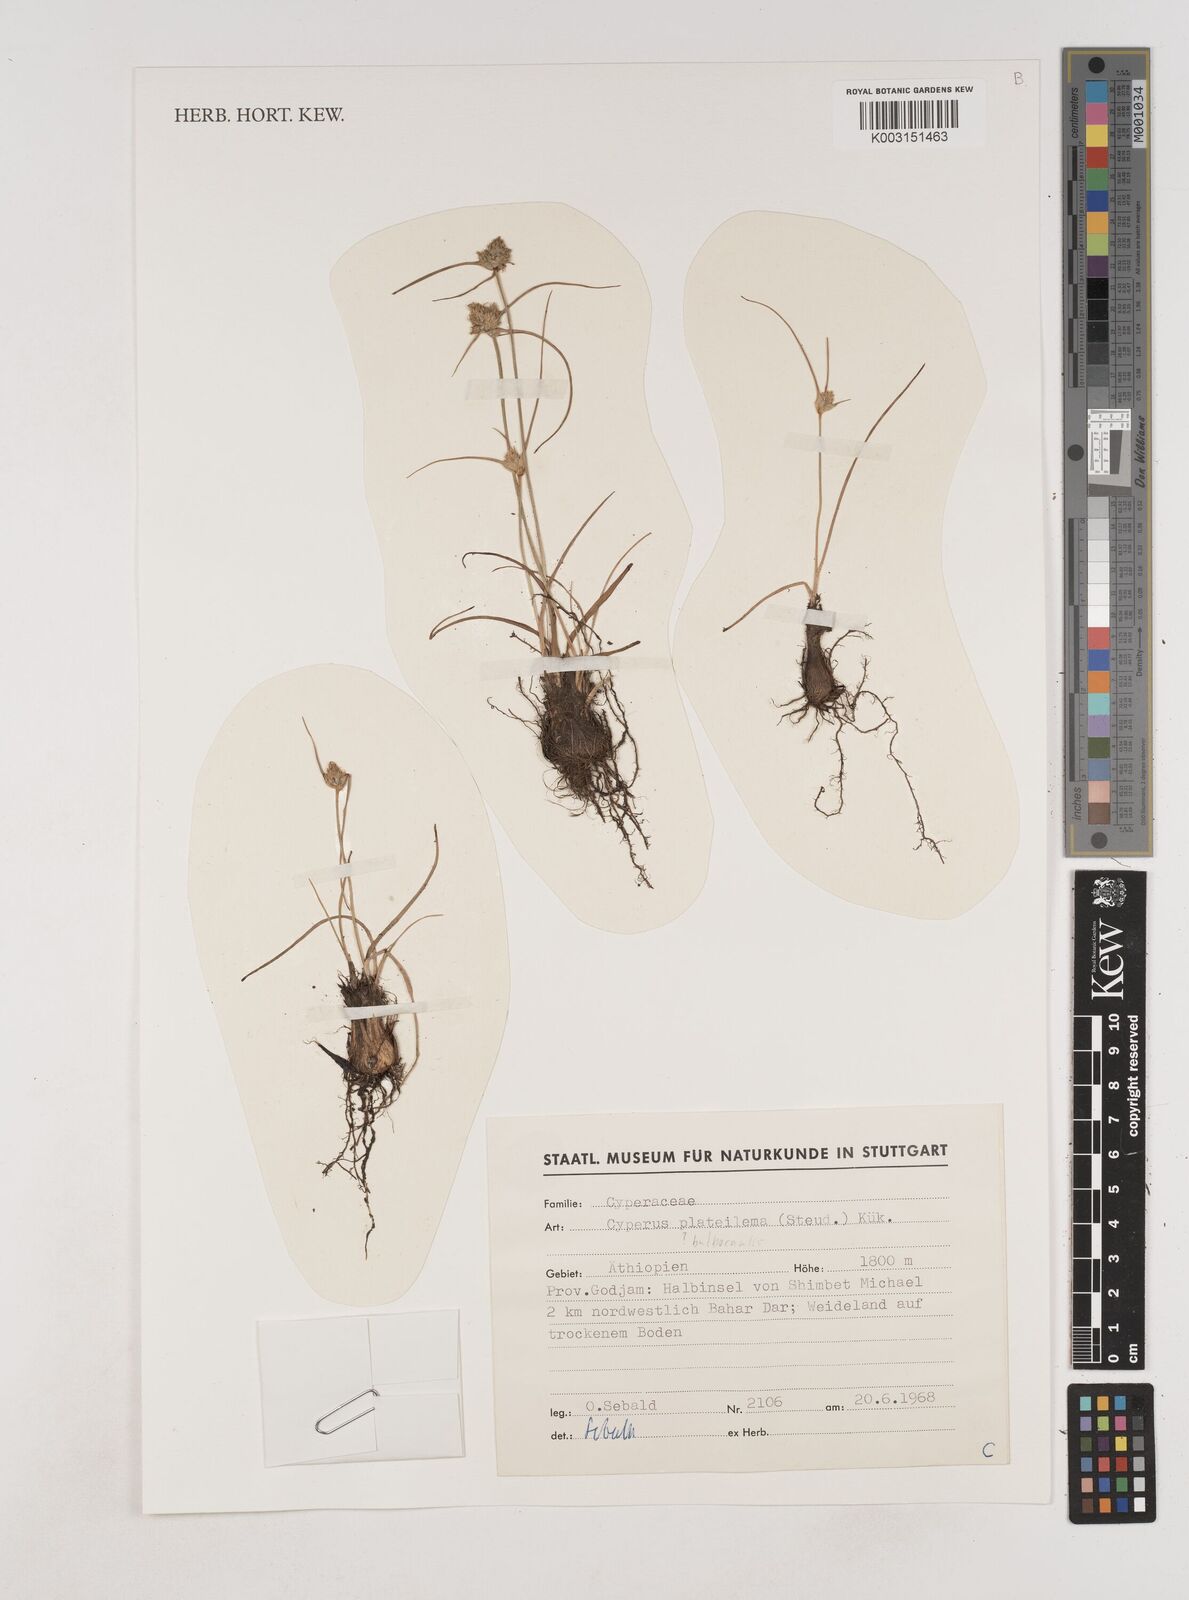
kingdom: Plantae
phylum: Tracheophyta
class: Liliopsida
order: Poales
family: Cyperaceae
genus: Cyperus
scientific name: Cyperus plateilema
